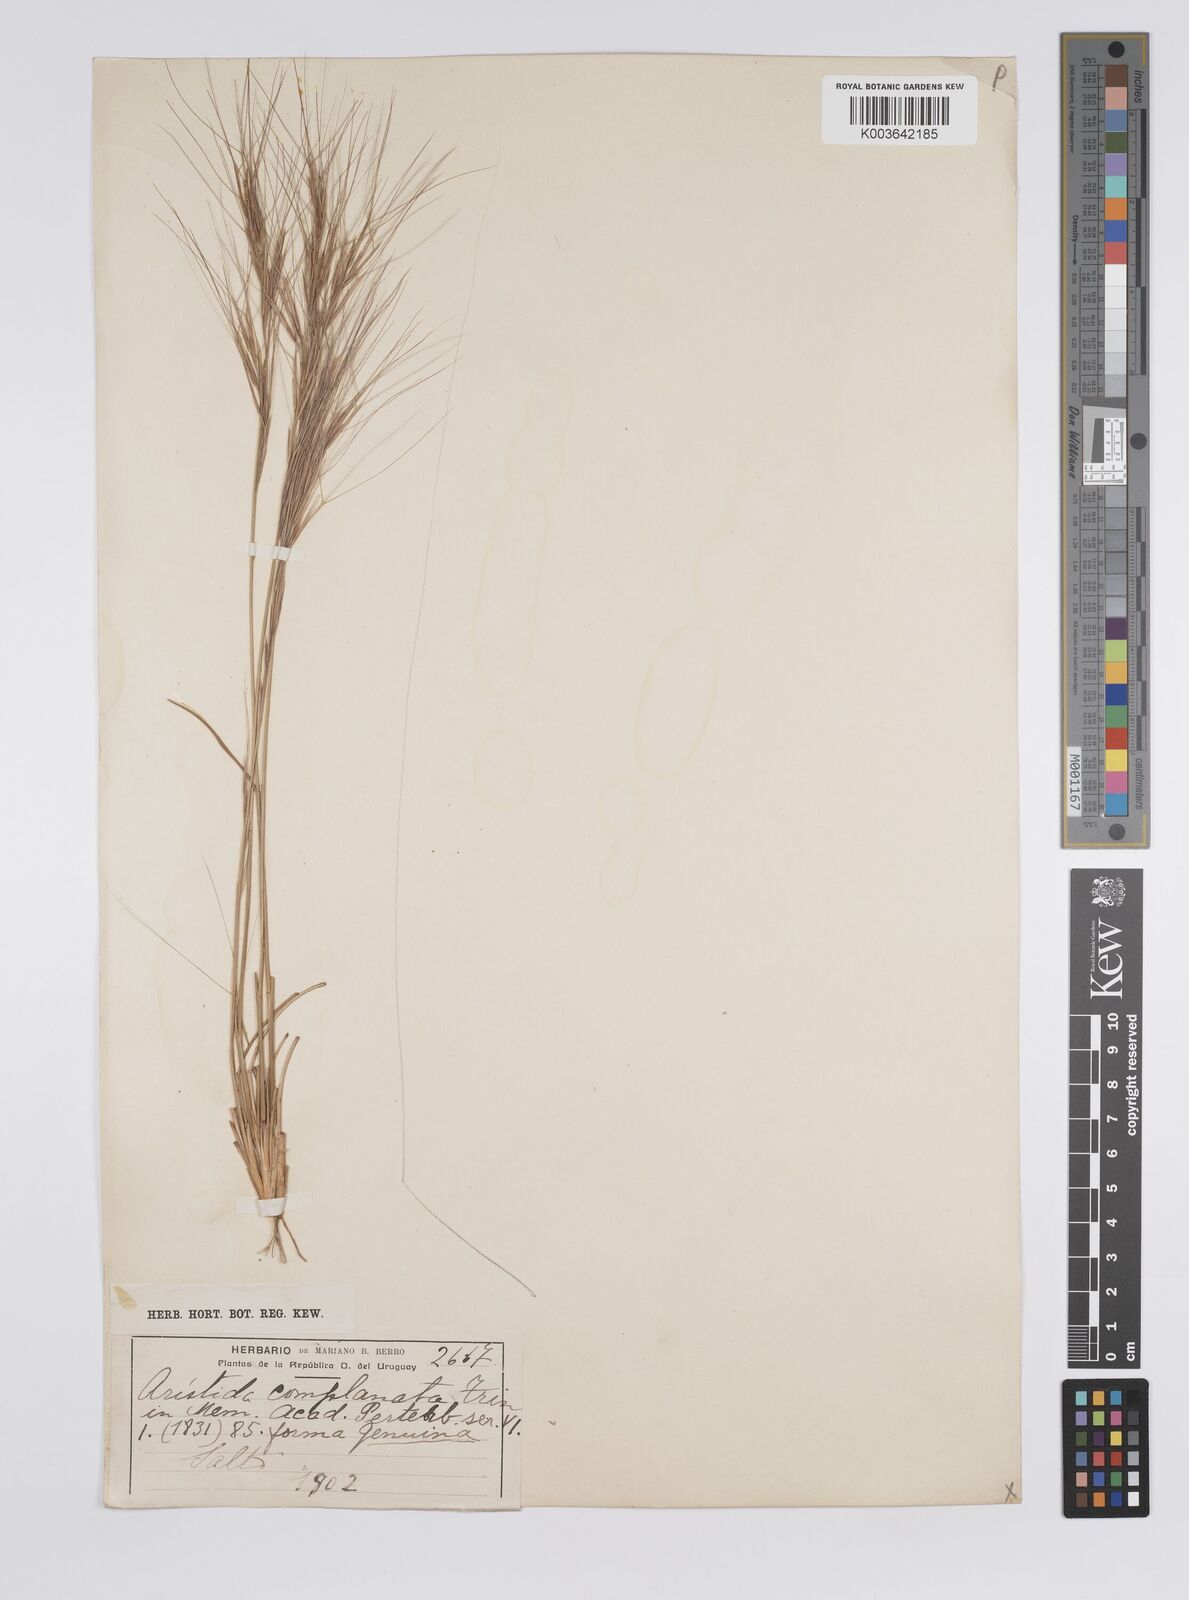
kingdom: Plantae
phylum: Tracheophyta
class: Liliopsida
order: Poales
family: Poaceae
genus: Aristida
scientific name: Aristida
